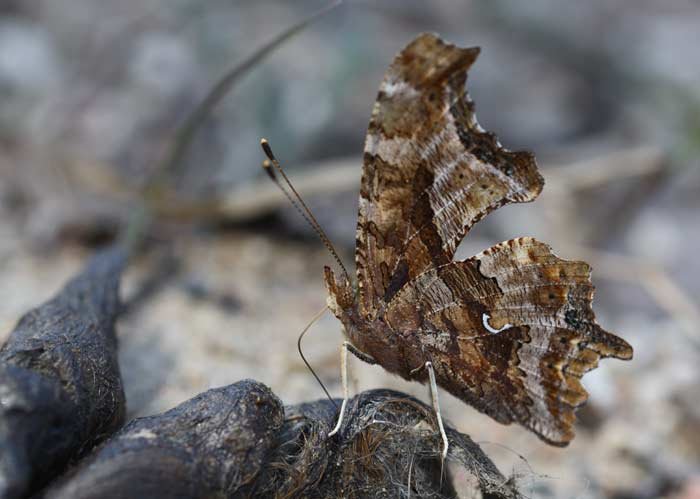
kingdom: Animalia
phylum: Arthropoda
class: Insecta
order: Lepidoptera
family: Nymphalidae
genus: Polygonia
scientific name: Polygonia comma
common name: Eastern Comma
